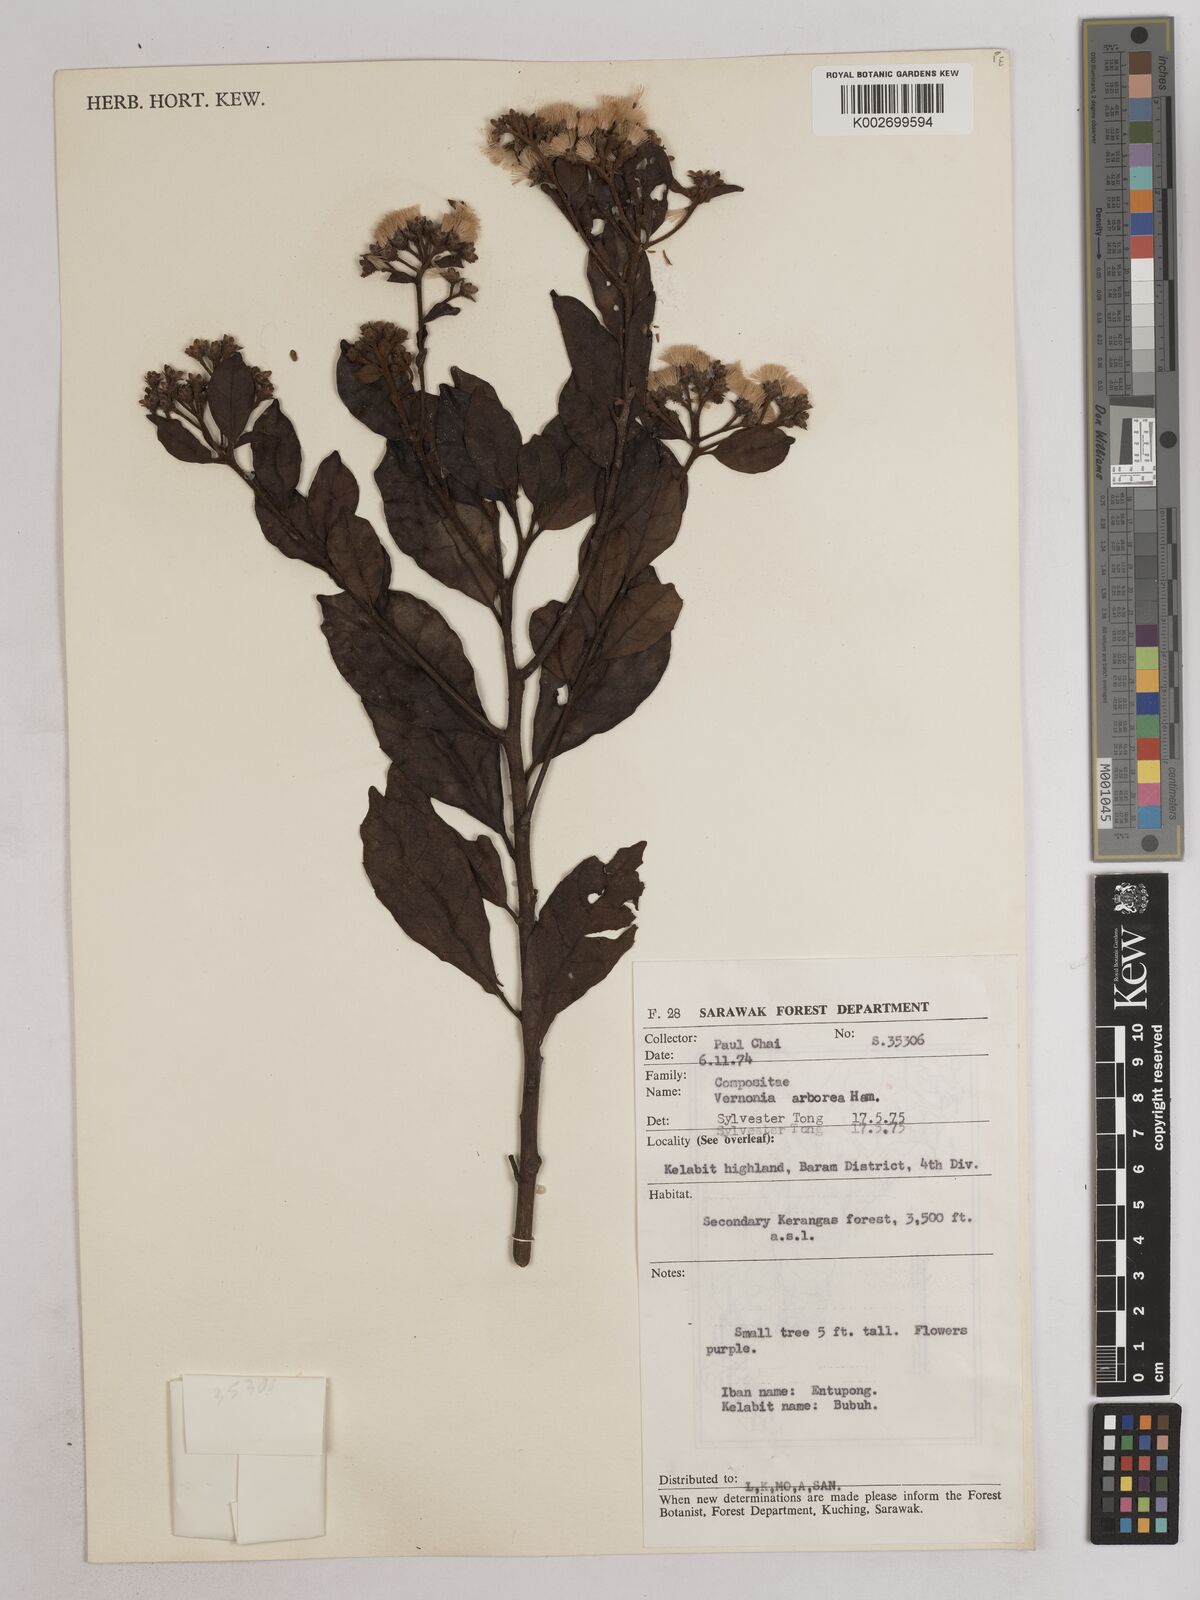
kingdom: Plantae
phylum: Tracheophyta
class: Magnoliopsida
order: Asterales
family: Asteraceae
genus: Strobocalyx
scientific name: Strobocalyx arborea
